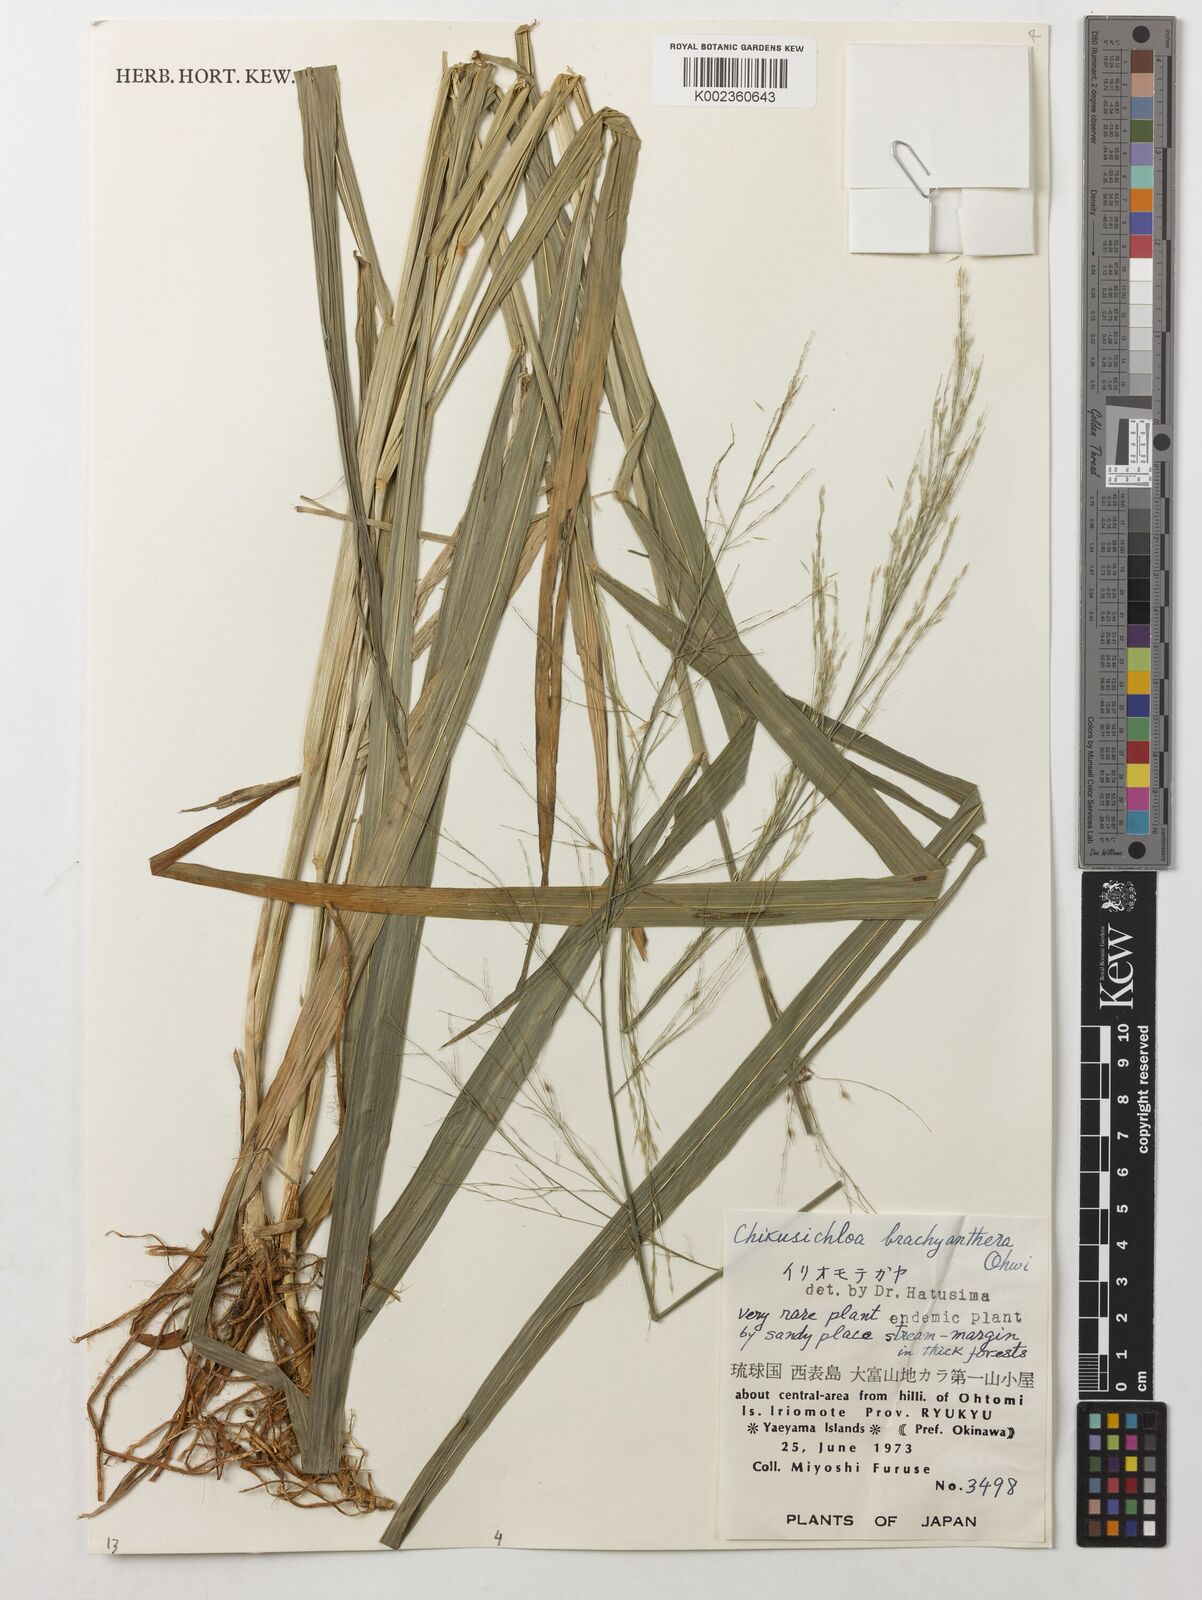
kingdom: Plantae
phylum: Tracheophyta
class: Liliopsida
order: Poales
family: Poaceae
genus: Chikusichloa
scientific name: Chikusichloa brachyathera
